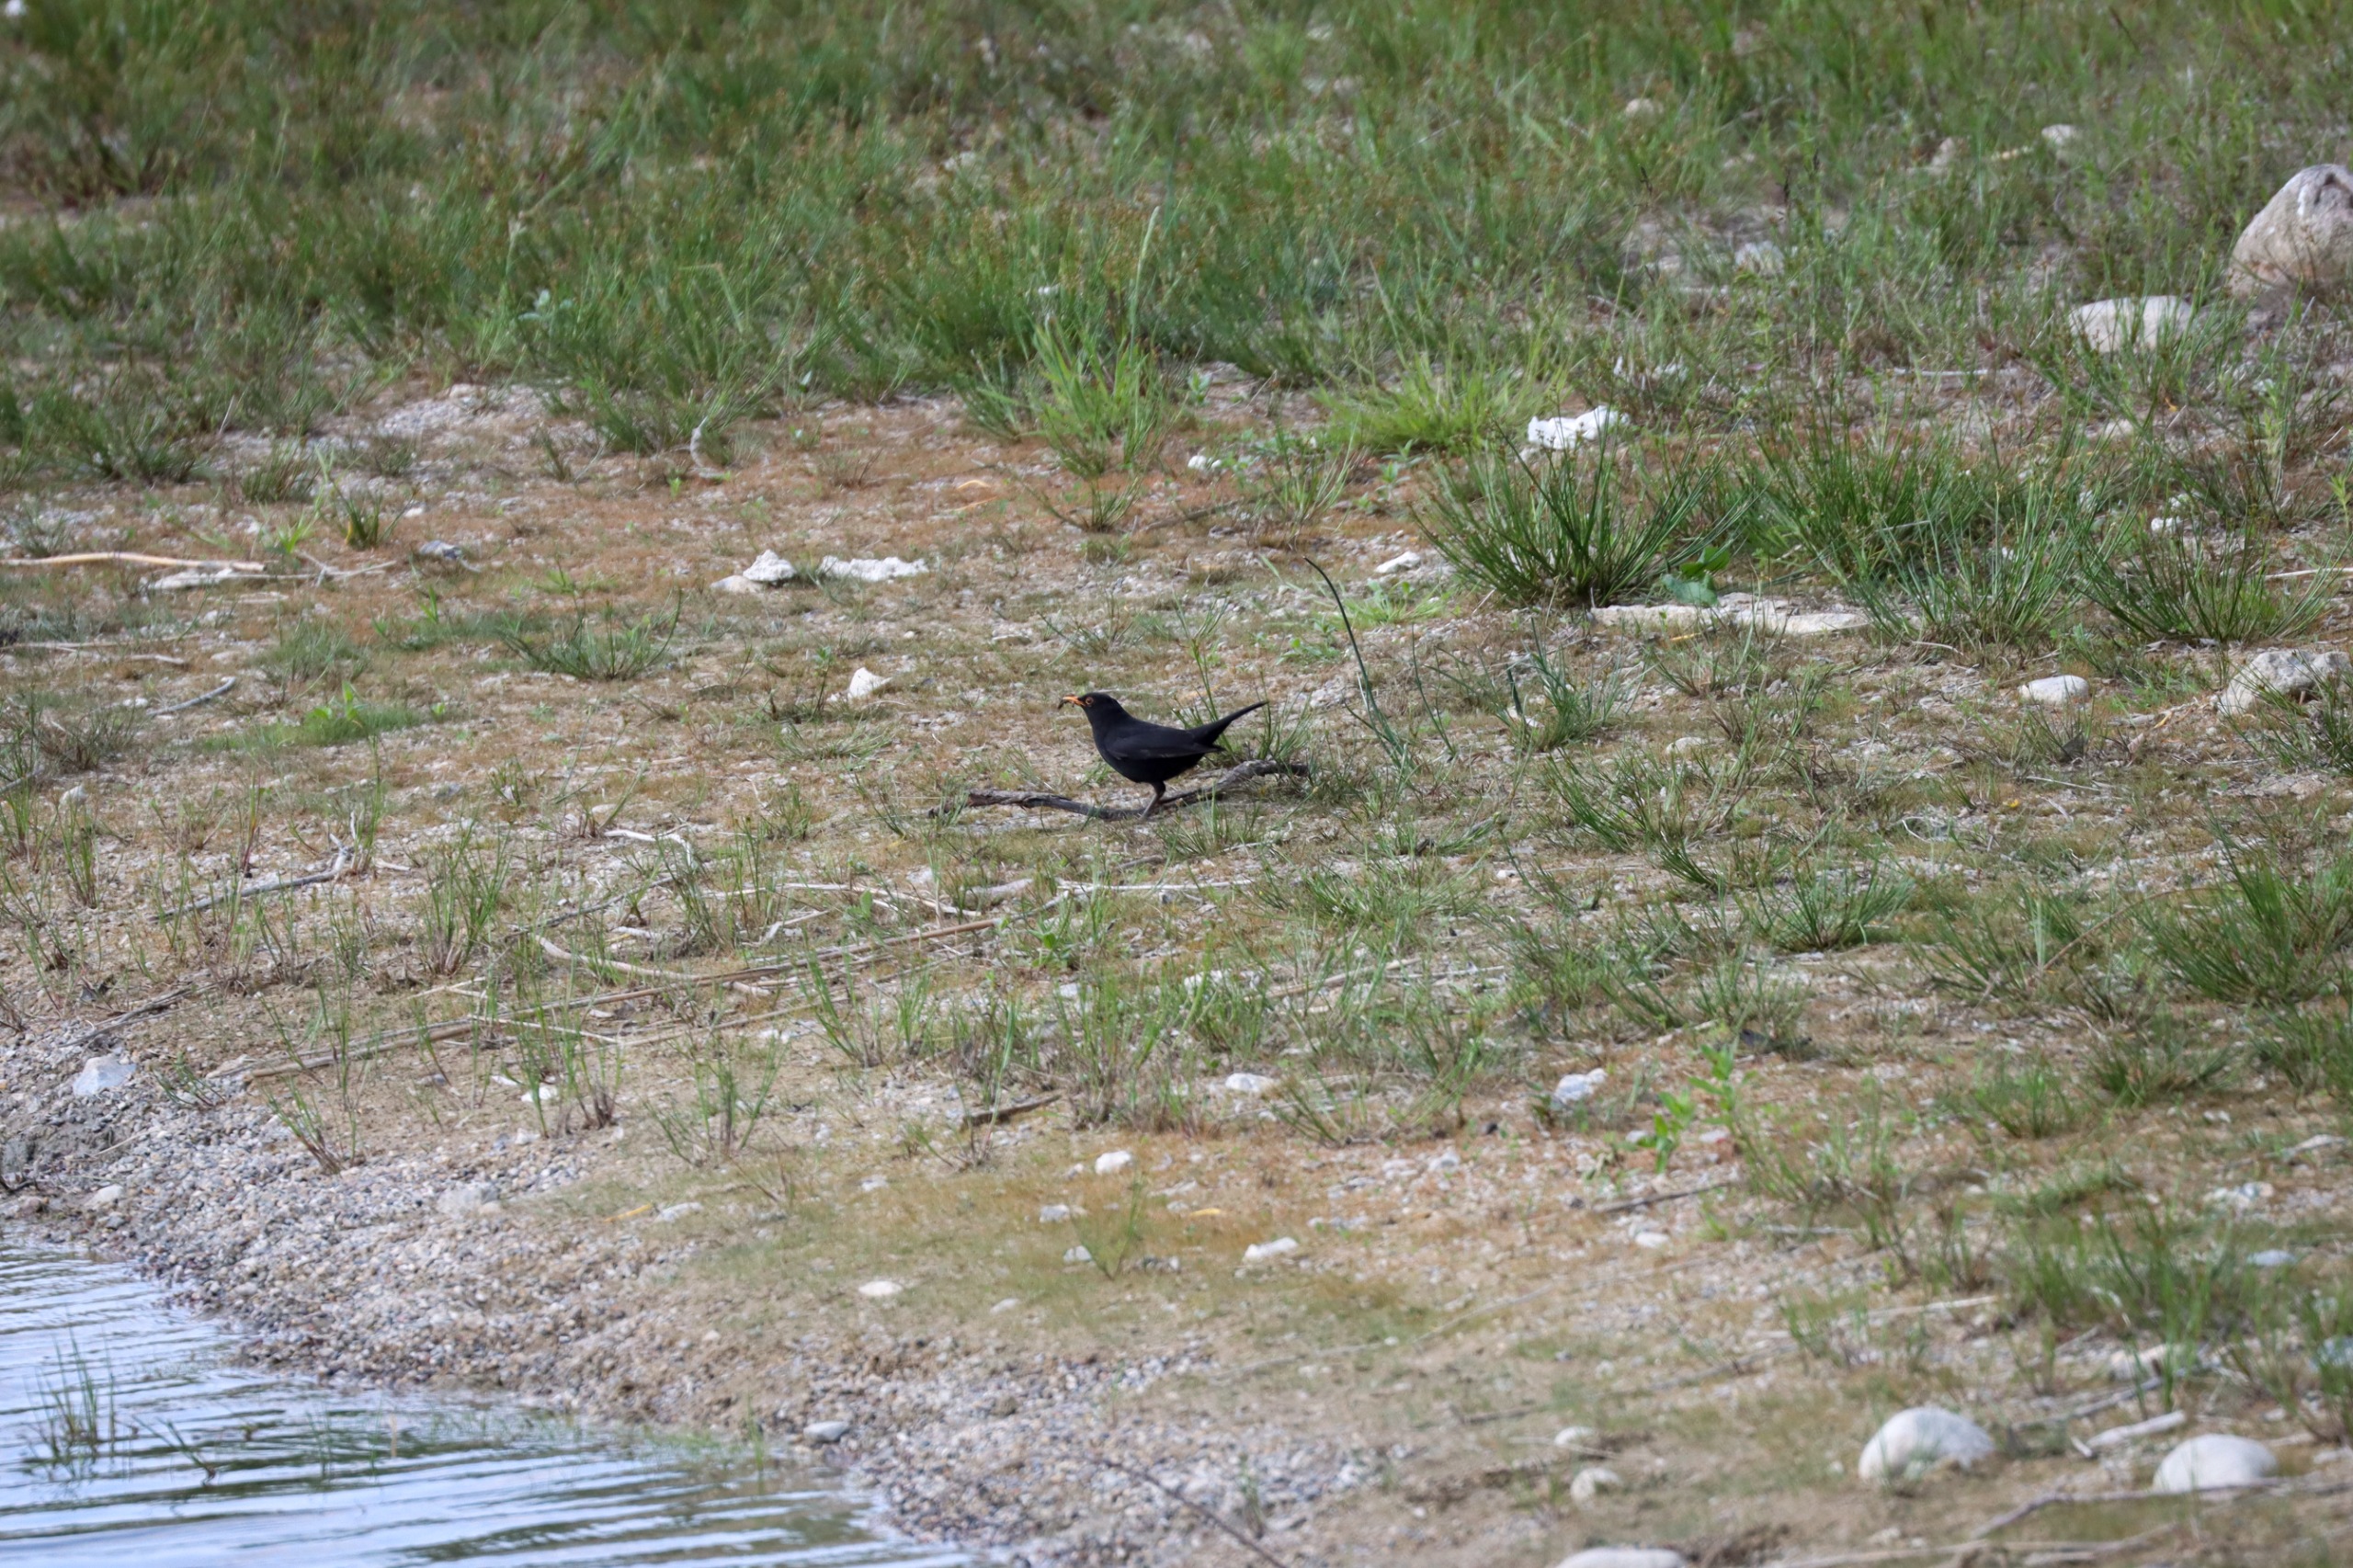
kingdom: Animalia
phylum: Chordata
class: Aves
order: Passeriformes
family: Turdidae
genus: Turdus
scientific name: Turdus merula
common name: Solsort
